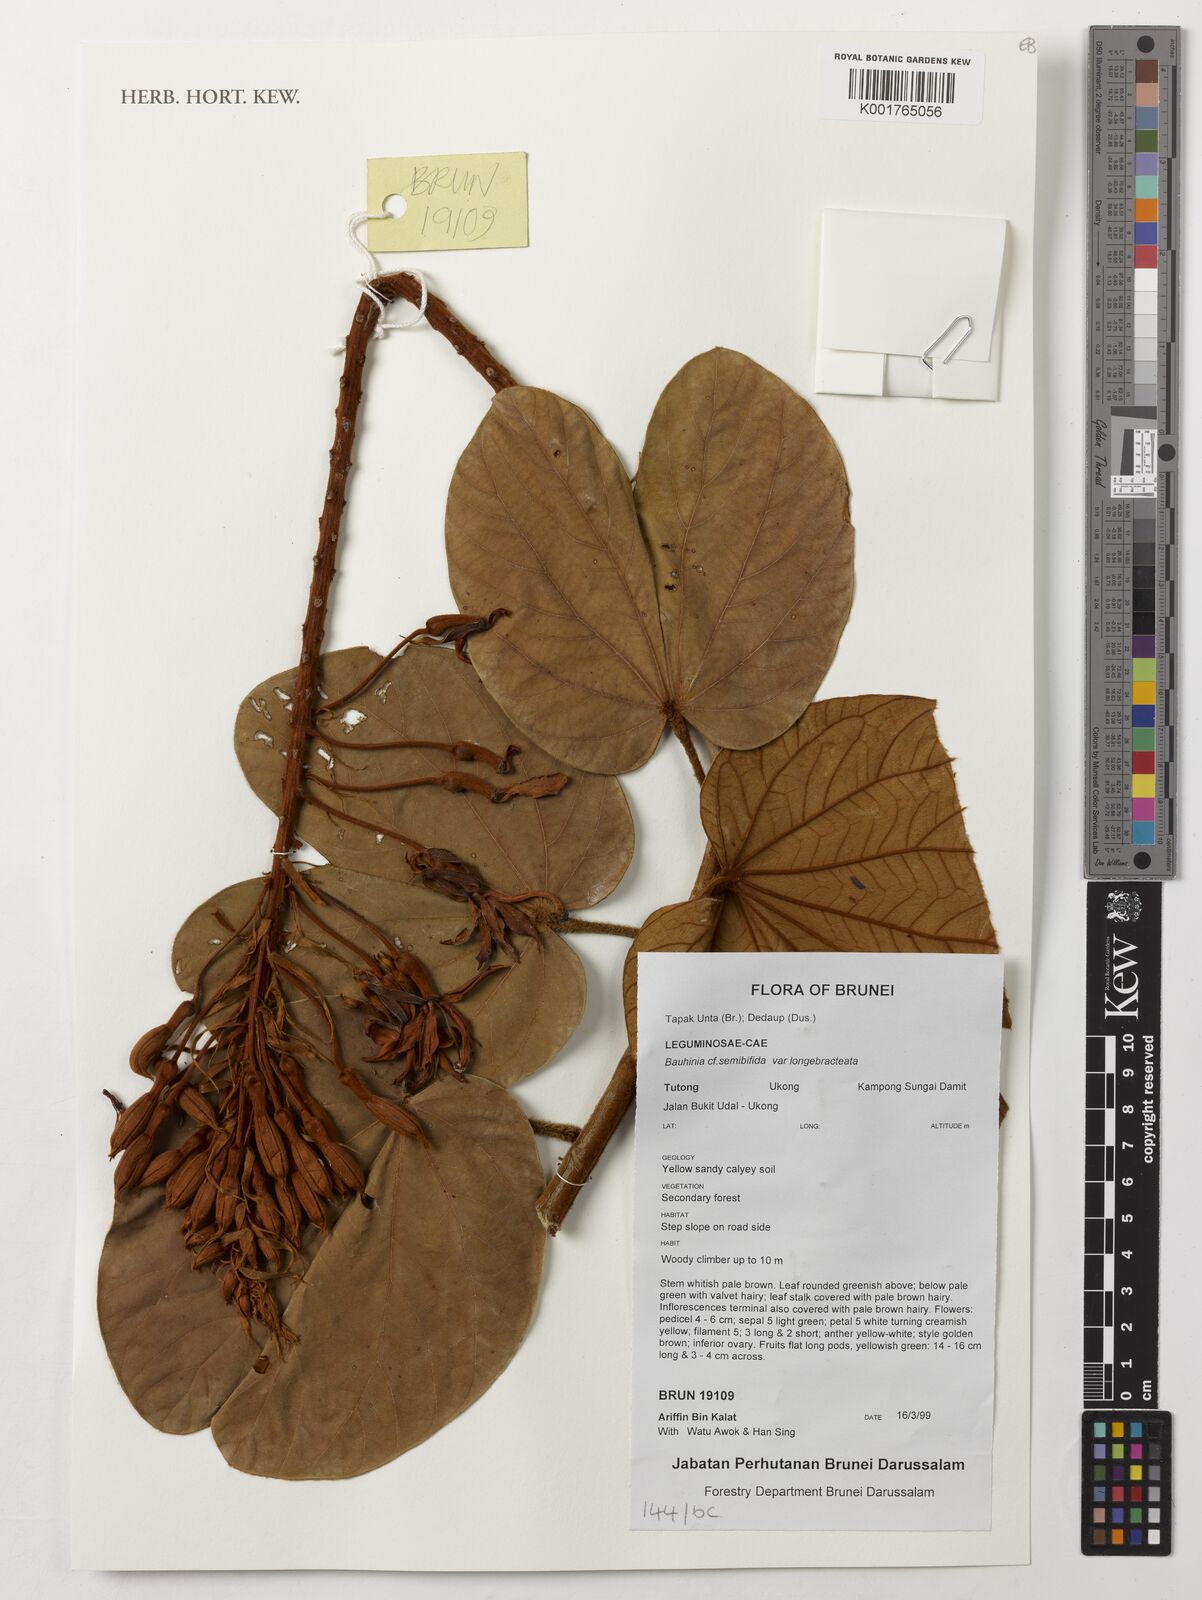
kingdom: Plantae
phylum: Tracheophyta
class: Magnoliopsida
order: Fabales
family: Fabaceae
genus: Phanera
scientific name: Phanera semibifida
